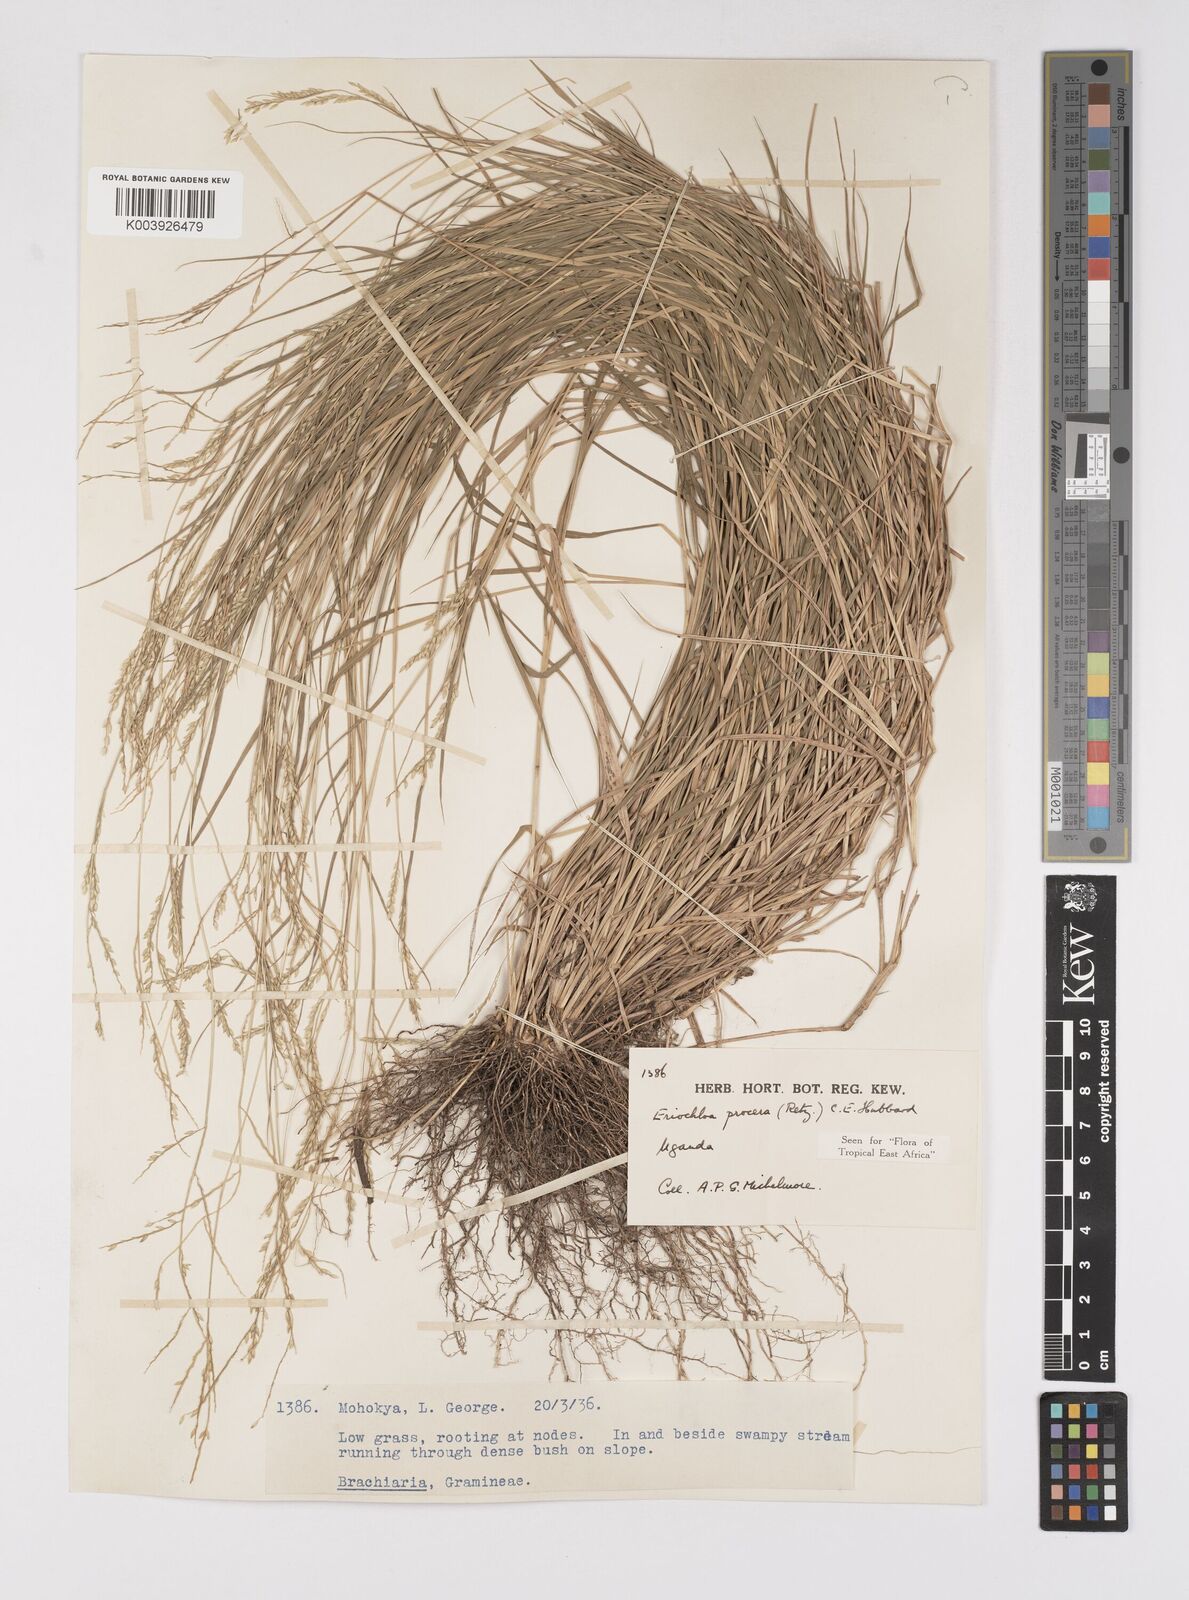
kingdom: Plantae
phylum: Tracheophyta
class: Liliopsida
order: Poales
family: Poaceae
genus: Eriochloa
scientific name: Eriochloa procera
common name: Spring grass
